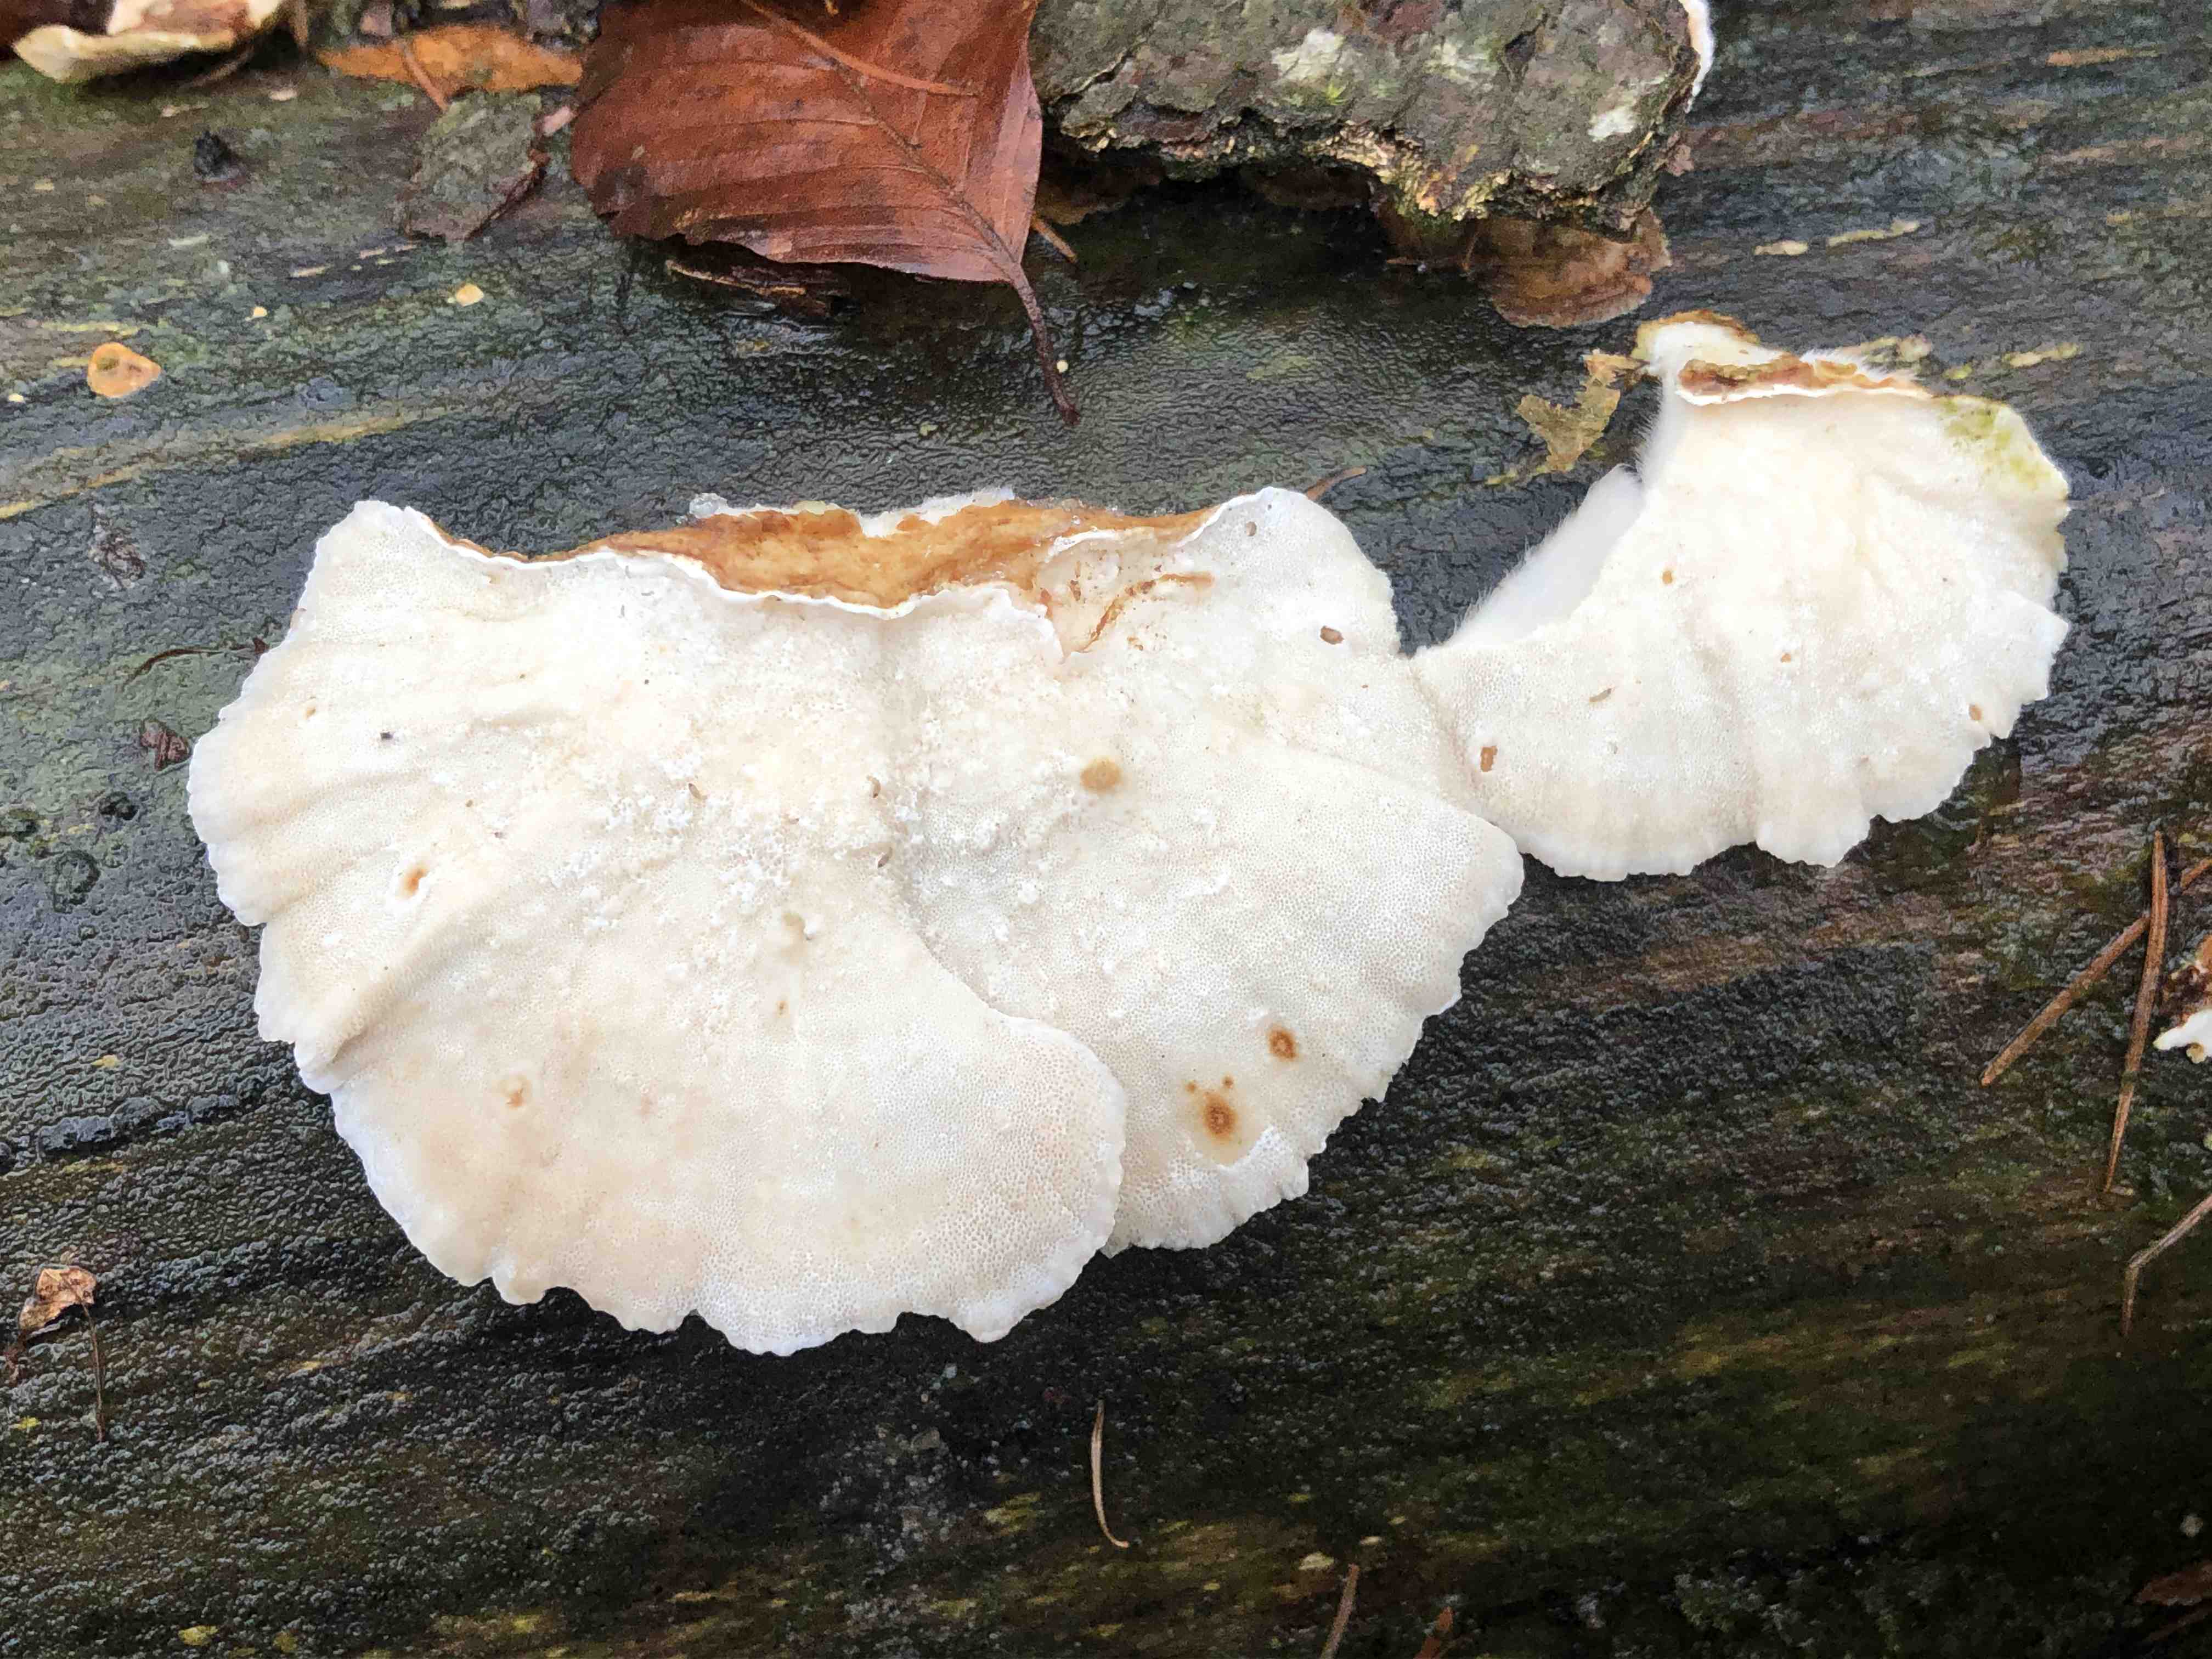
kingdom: Fungi
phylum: Basidiomycota
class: Agaricomycetes
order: Polyporales
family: Polyporaceae
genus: Trametes
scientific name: Trametes versicolor
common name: broget læderporesvamp
